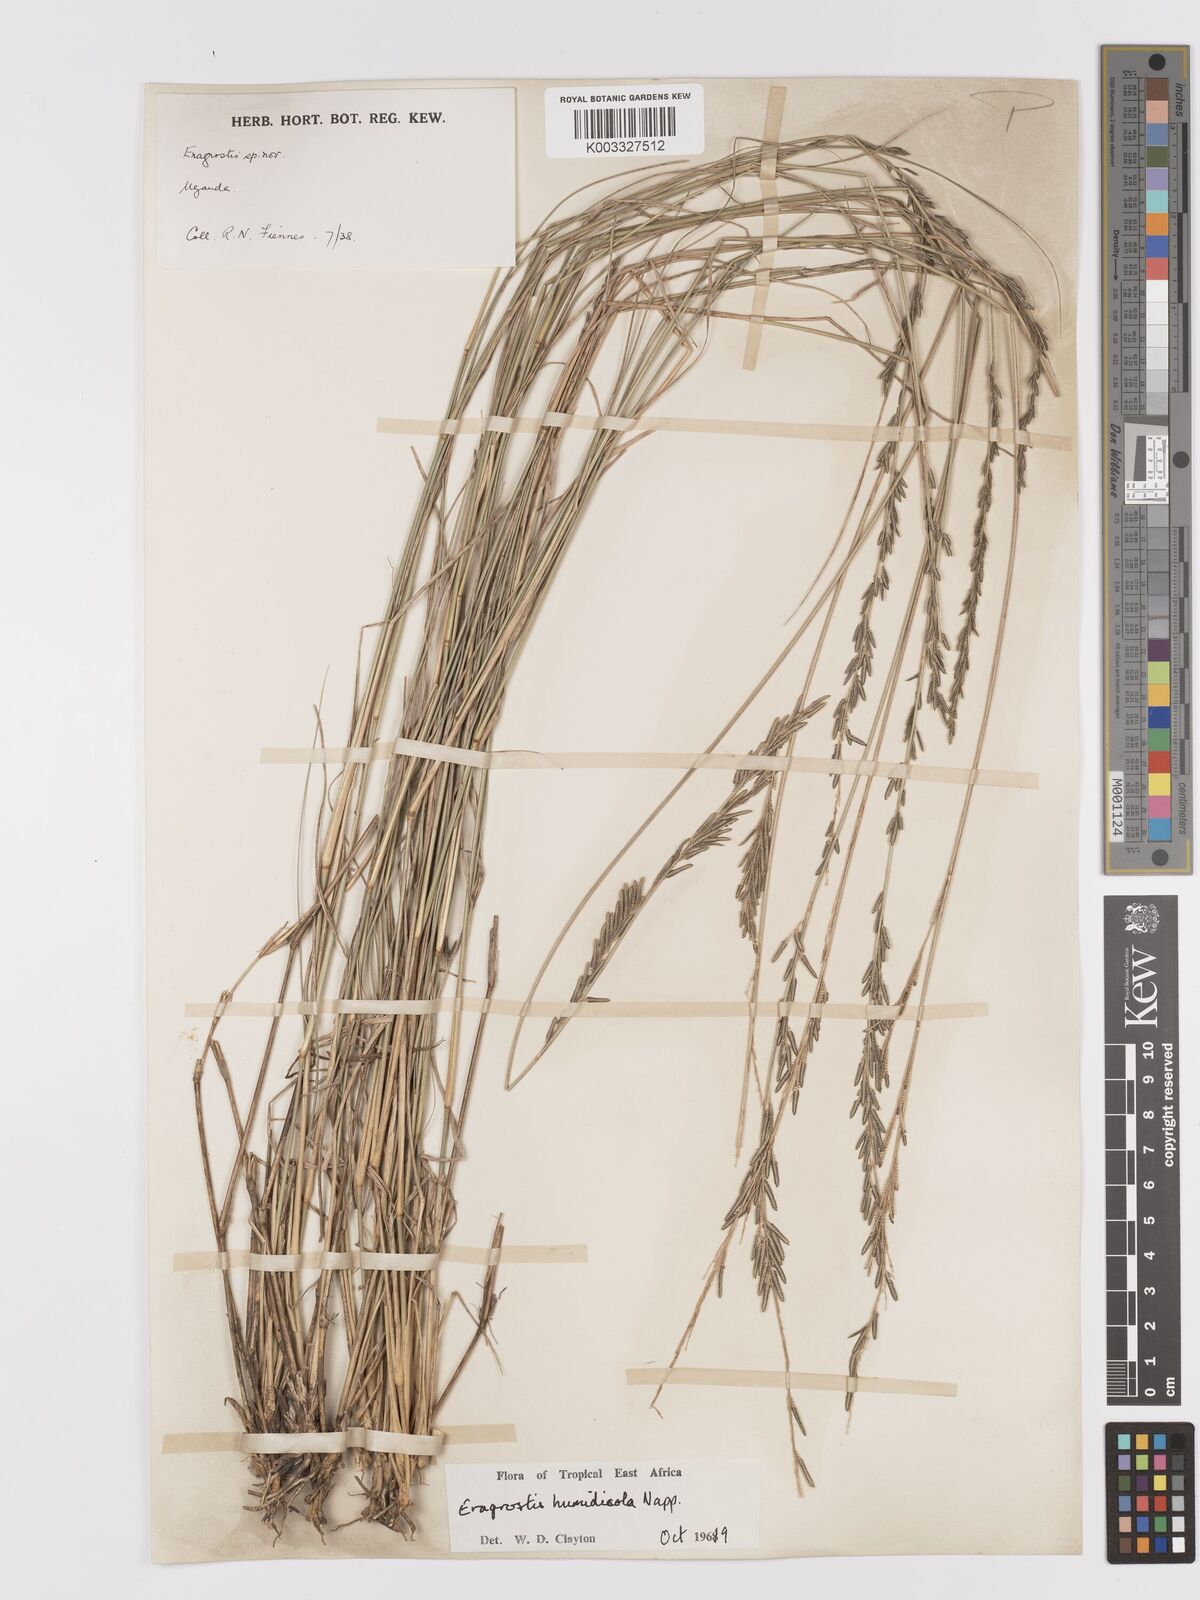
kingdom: Plantae
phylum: Tracheophyta
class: Liliopsida
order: Poales
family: Poaceae
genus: Eragrostis
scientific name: Eragrostis humidicola
